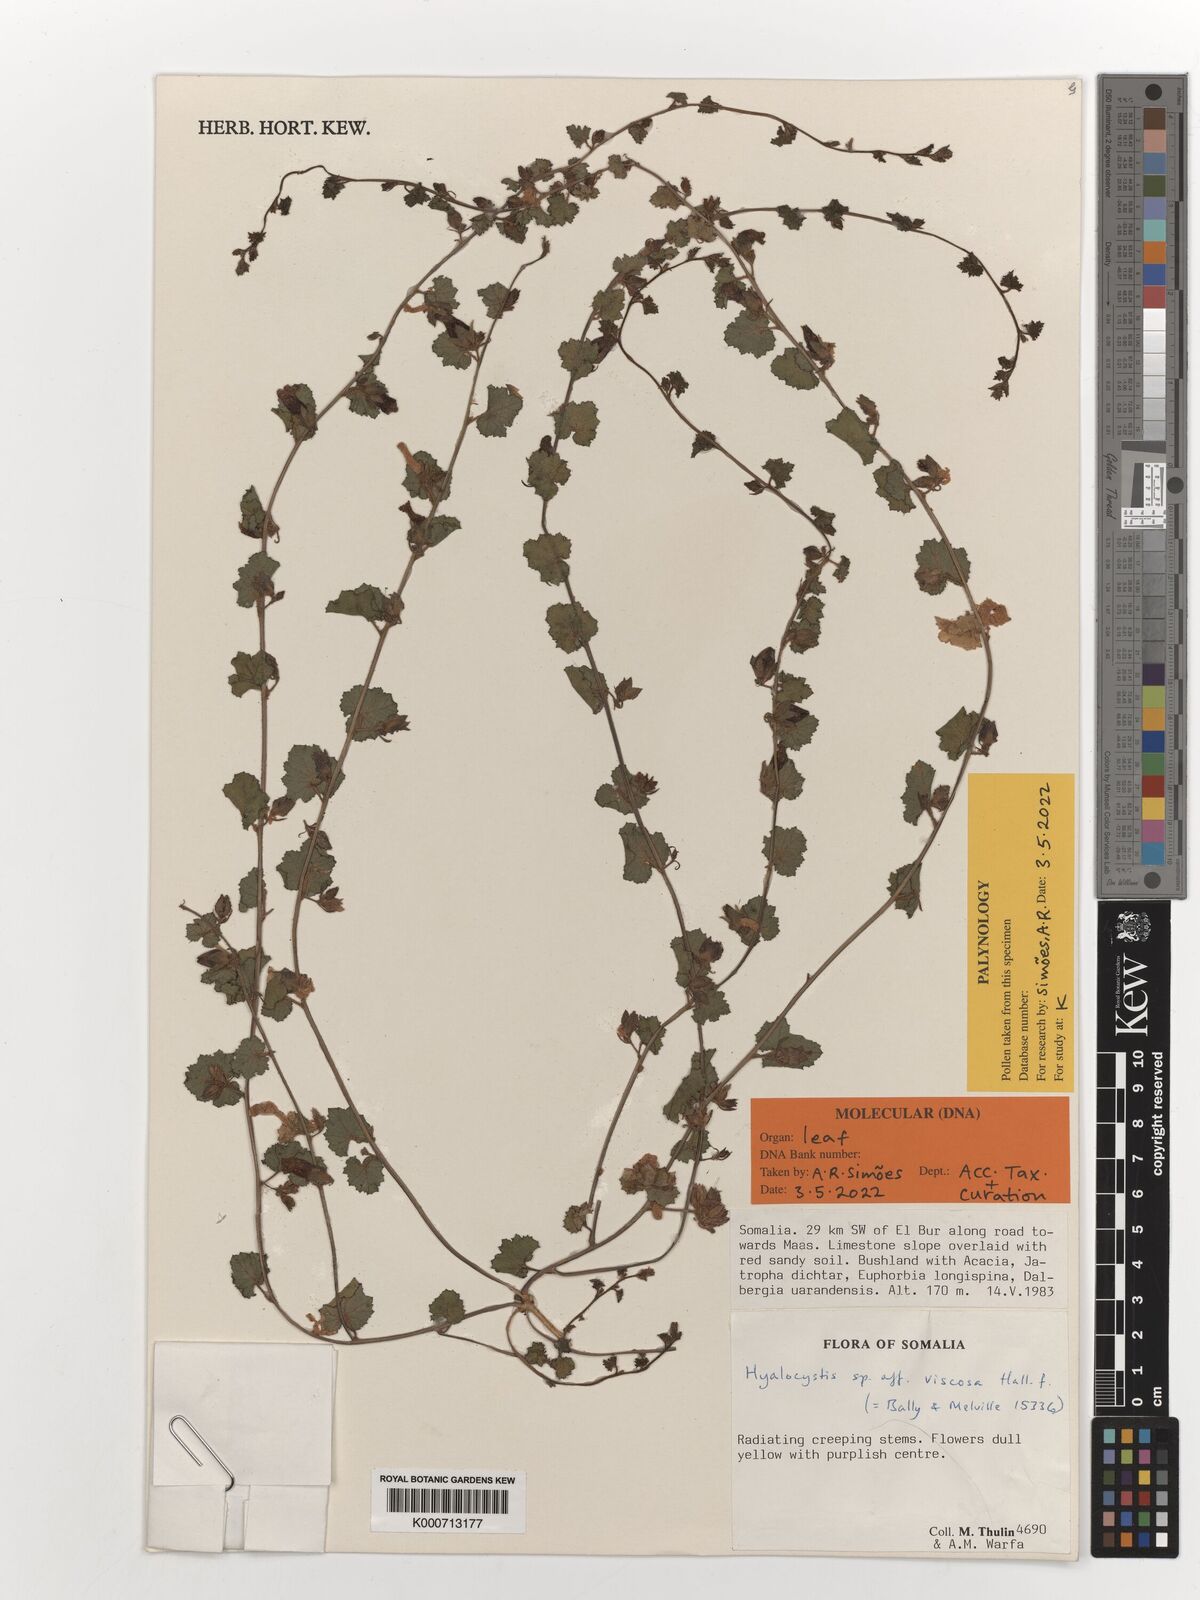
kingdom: Plantae
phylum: Tracheophyta
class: Magnoliopsida
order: Solanales
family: Convolvulaceae
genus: Hyalocystis
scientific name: Hyalocystis viscosa
